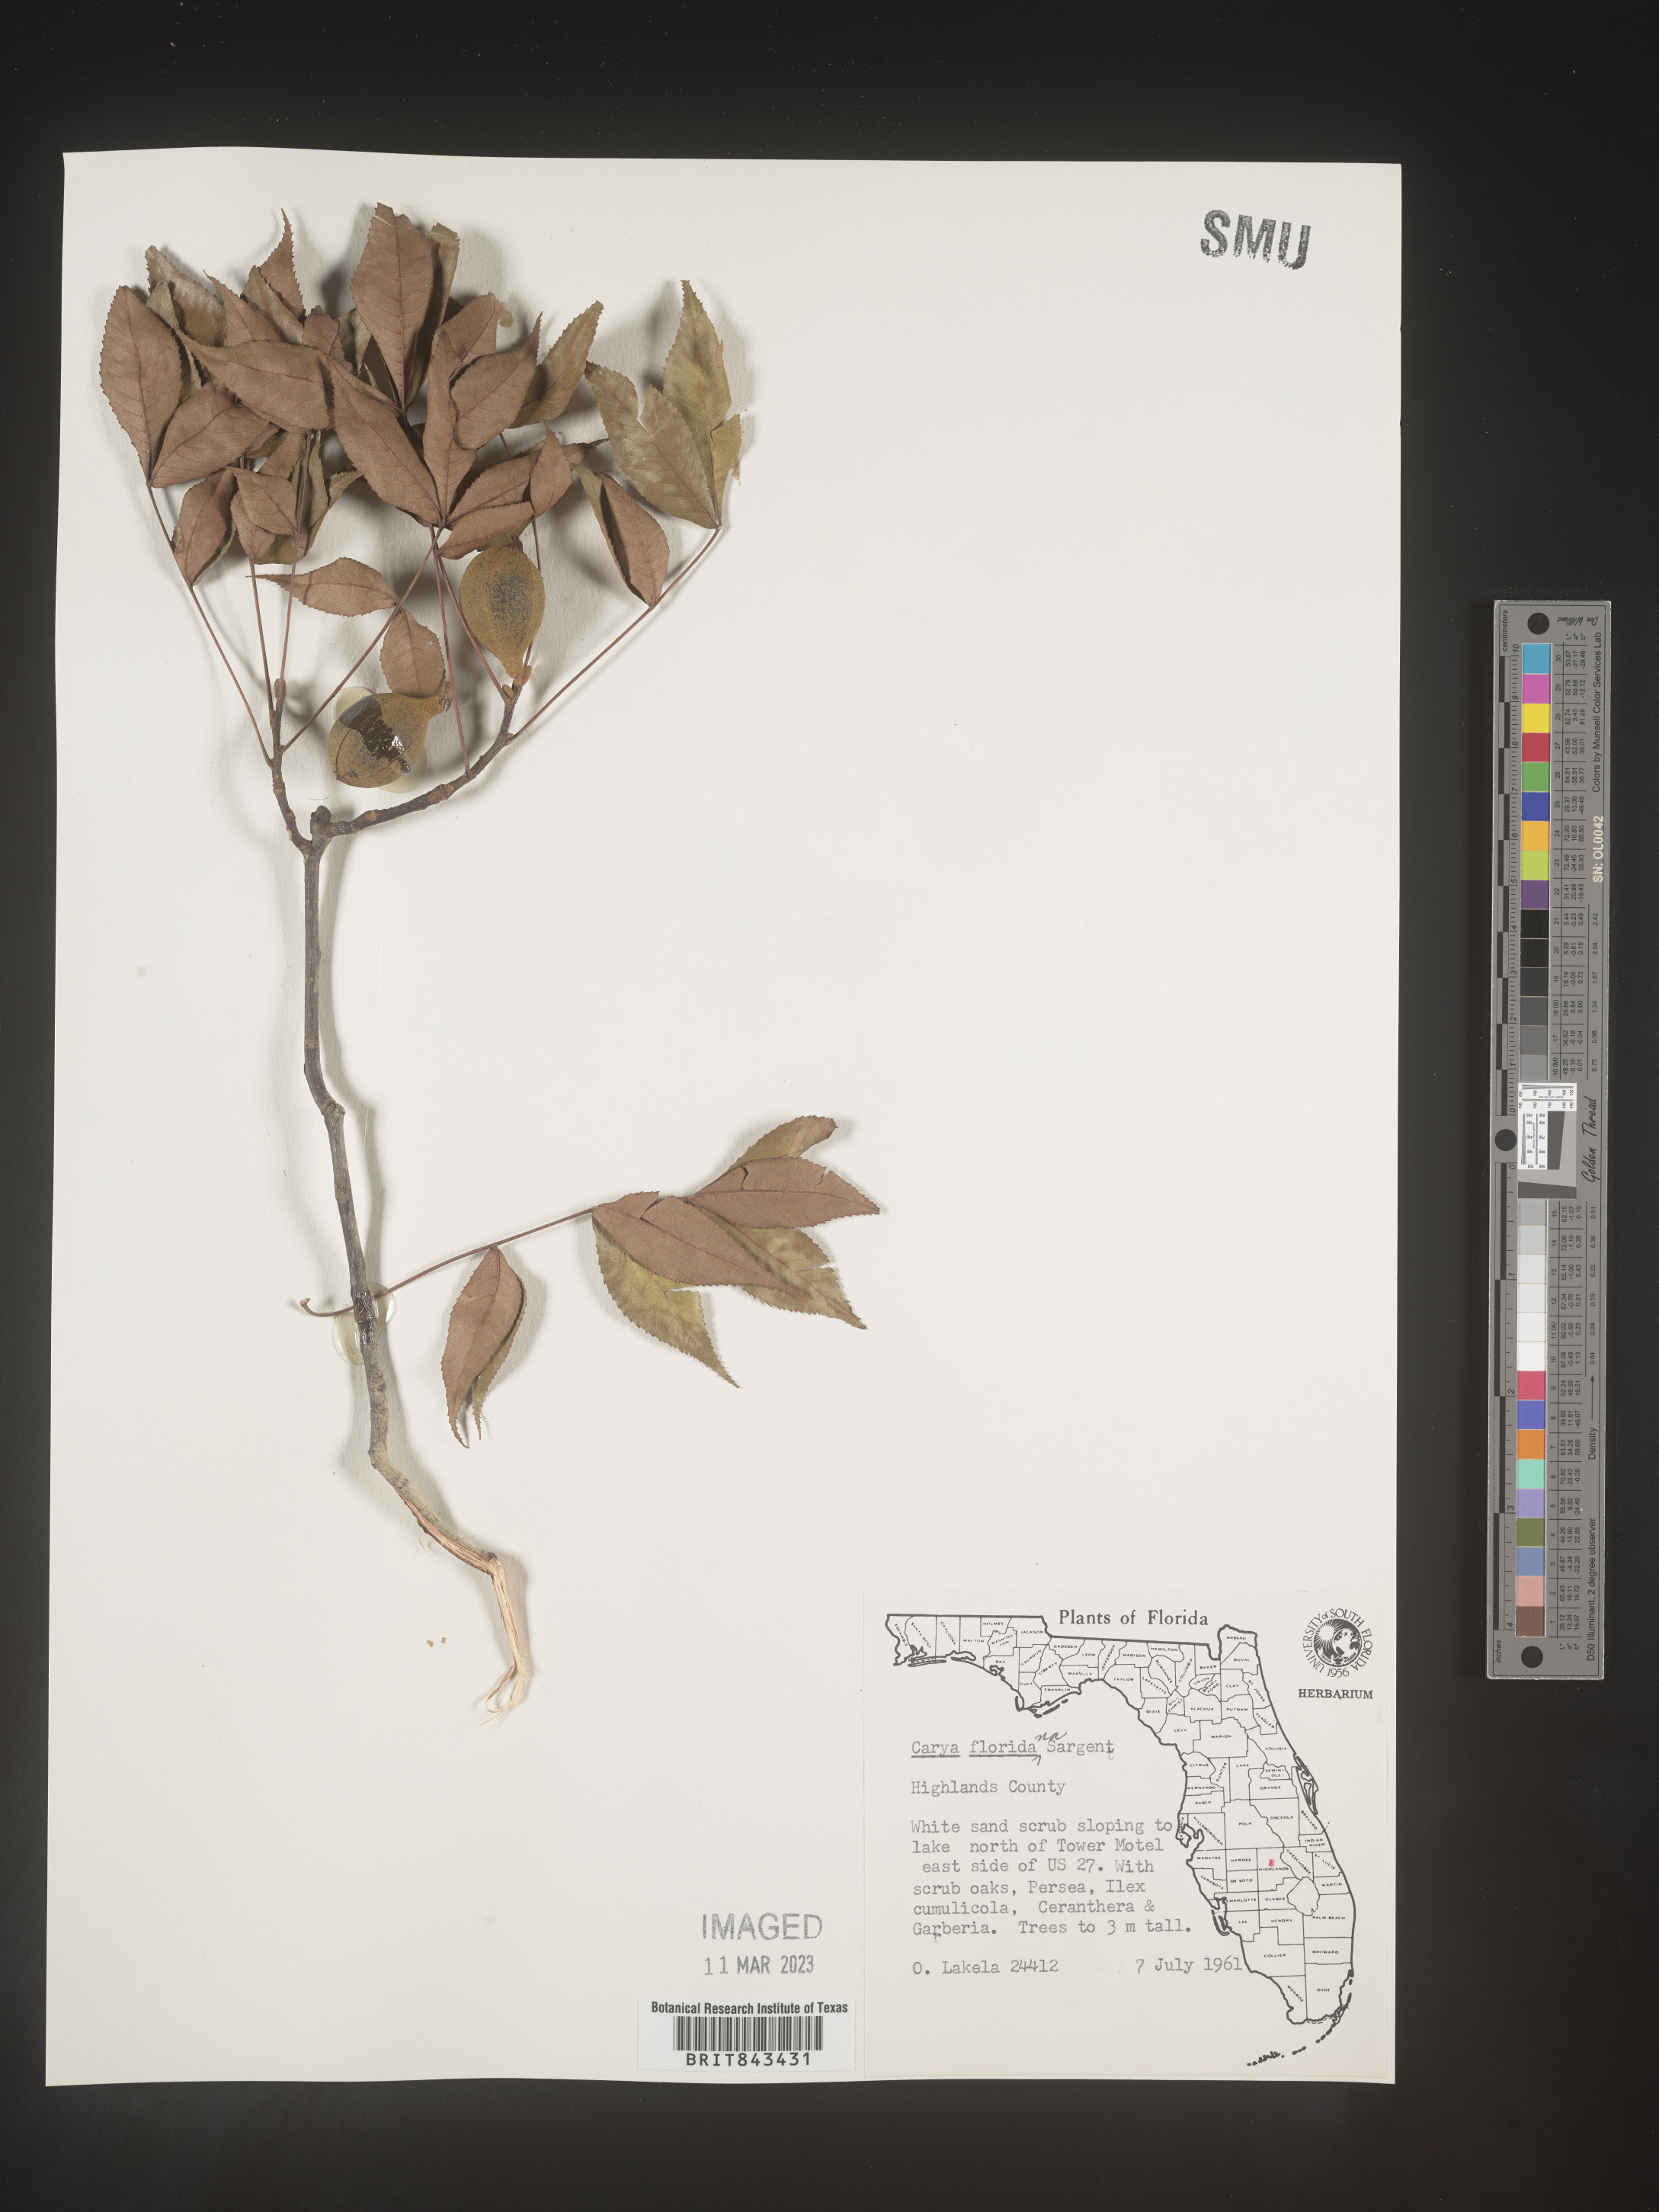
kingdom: Plantae
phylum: Tracheophyta
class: Magnoliopsida
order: Fagales
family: Juglandaceae
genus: Carya
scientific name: Carya glabra
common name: Pignut hickory
